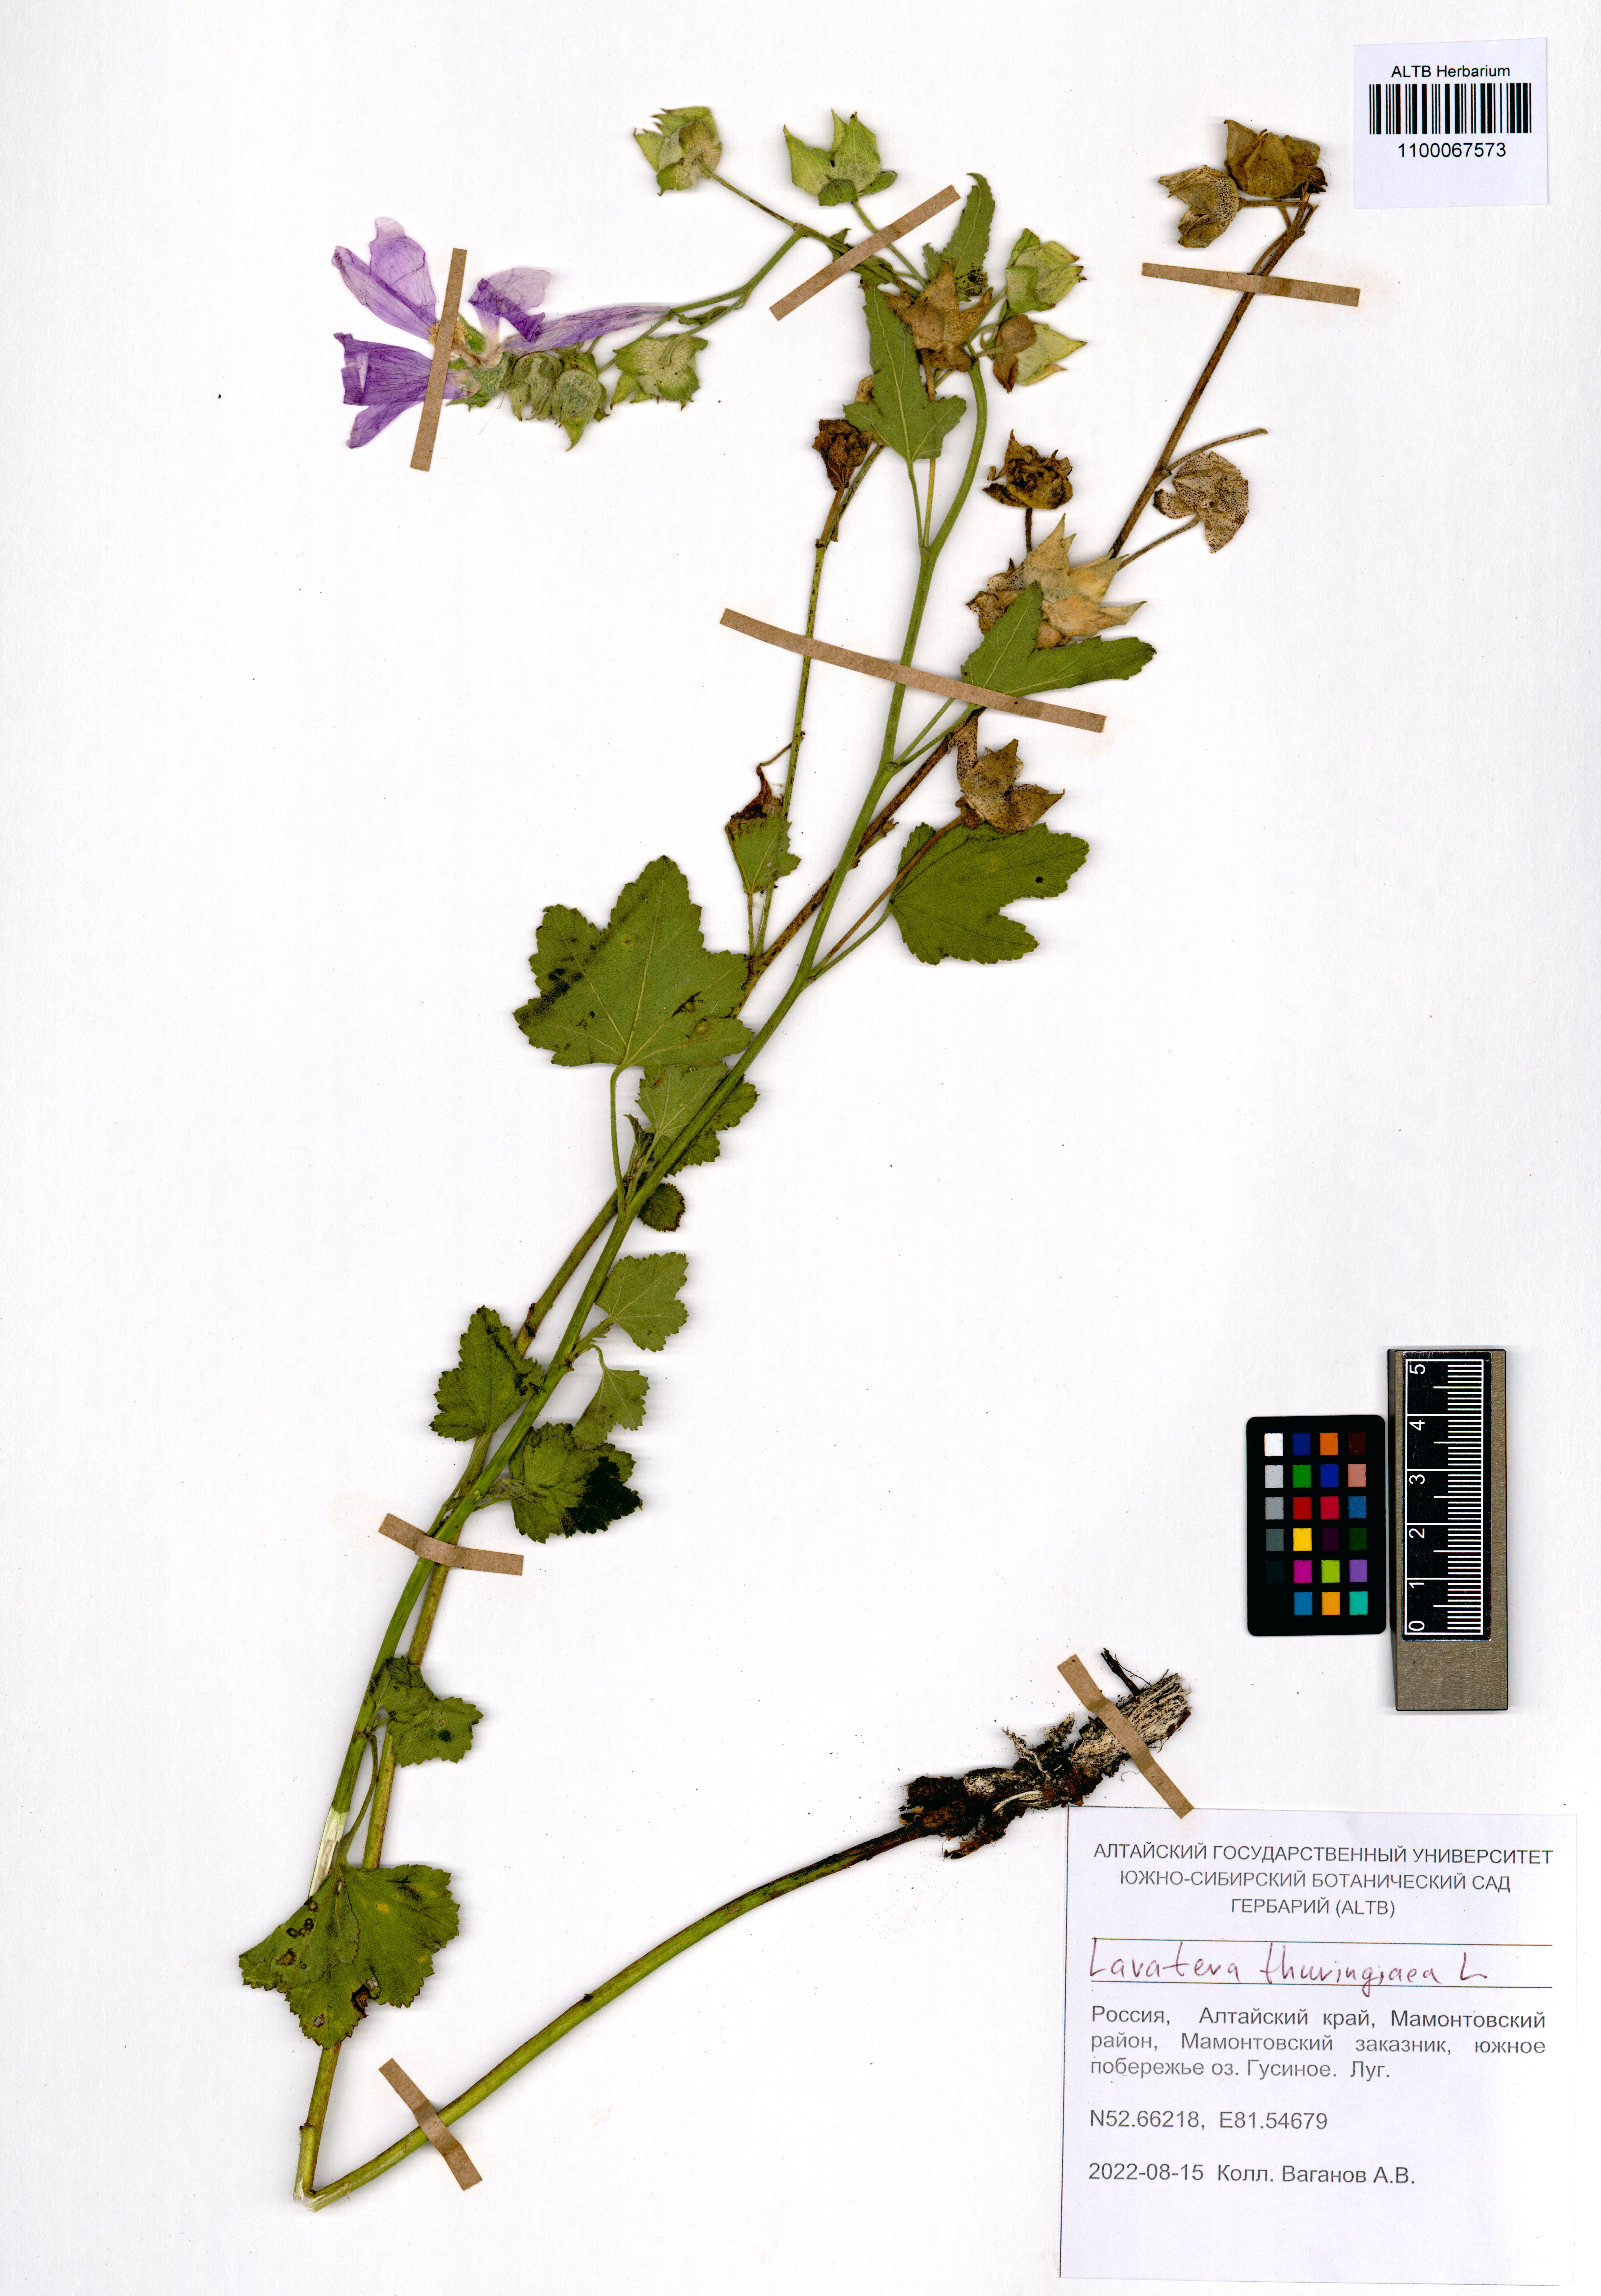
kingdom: Plantae
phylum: Tracheophyta
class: Magnoliopsida
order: Malvales
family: Malvaceae
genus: Malva
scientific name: Malva thuringiaca
